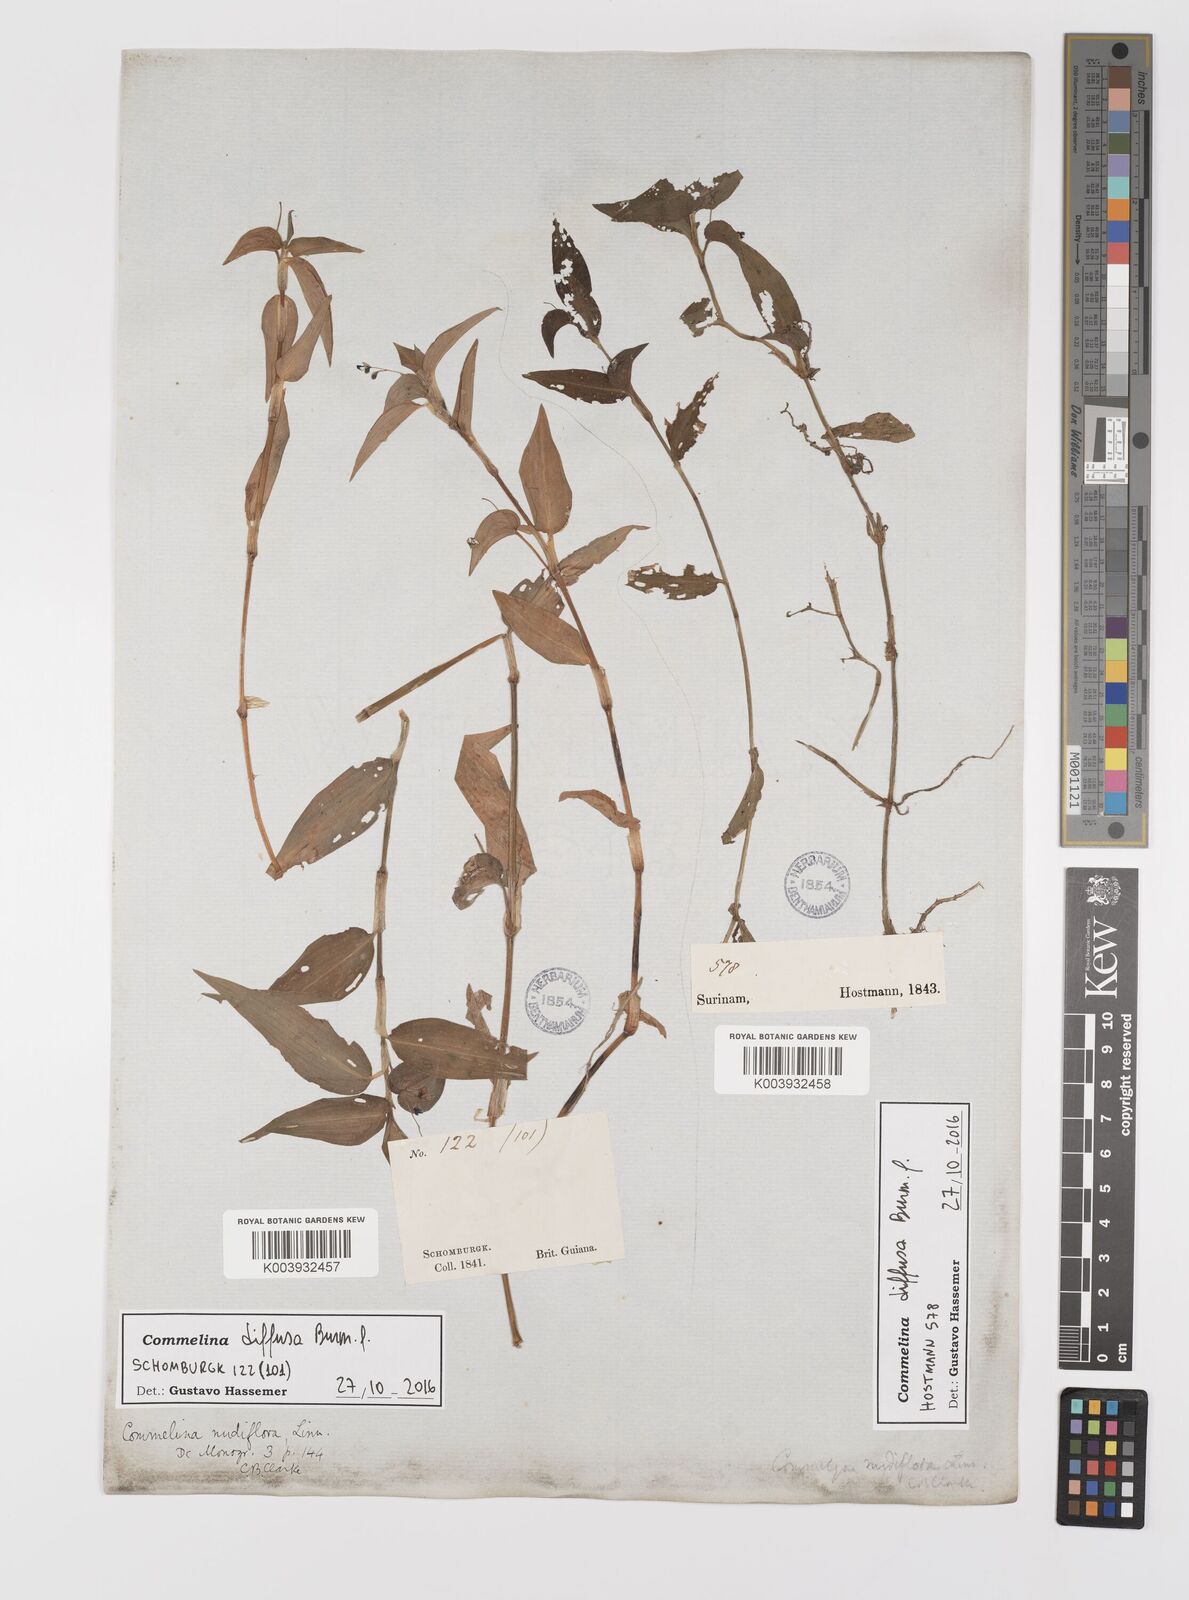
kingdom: Plantae
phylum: Tracheophyta
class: Liliopsida
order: Commelinales
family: Commelinaceae
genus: Commelina
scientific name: Commelina diffusa
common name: Climbing dayflower
